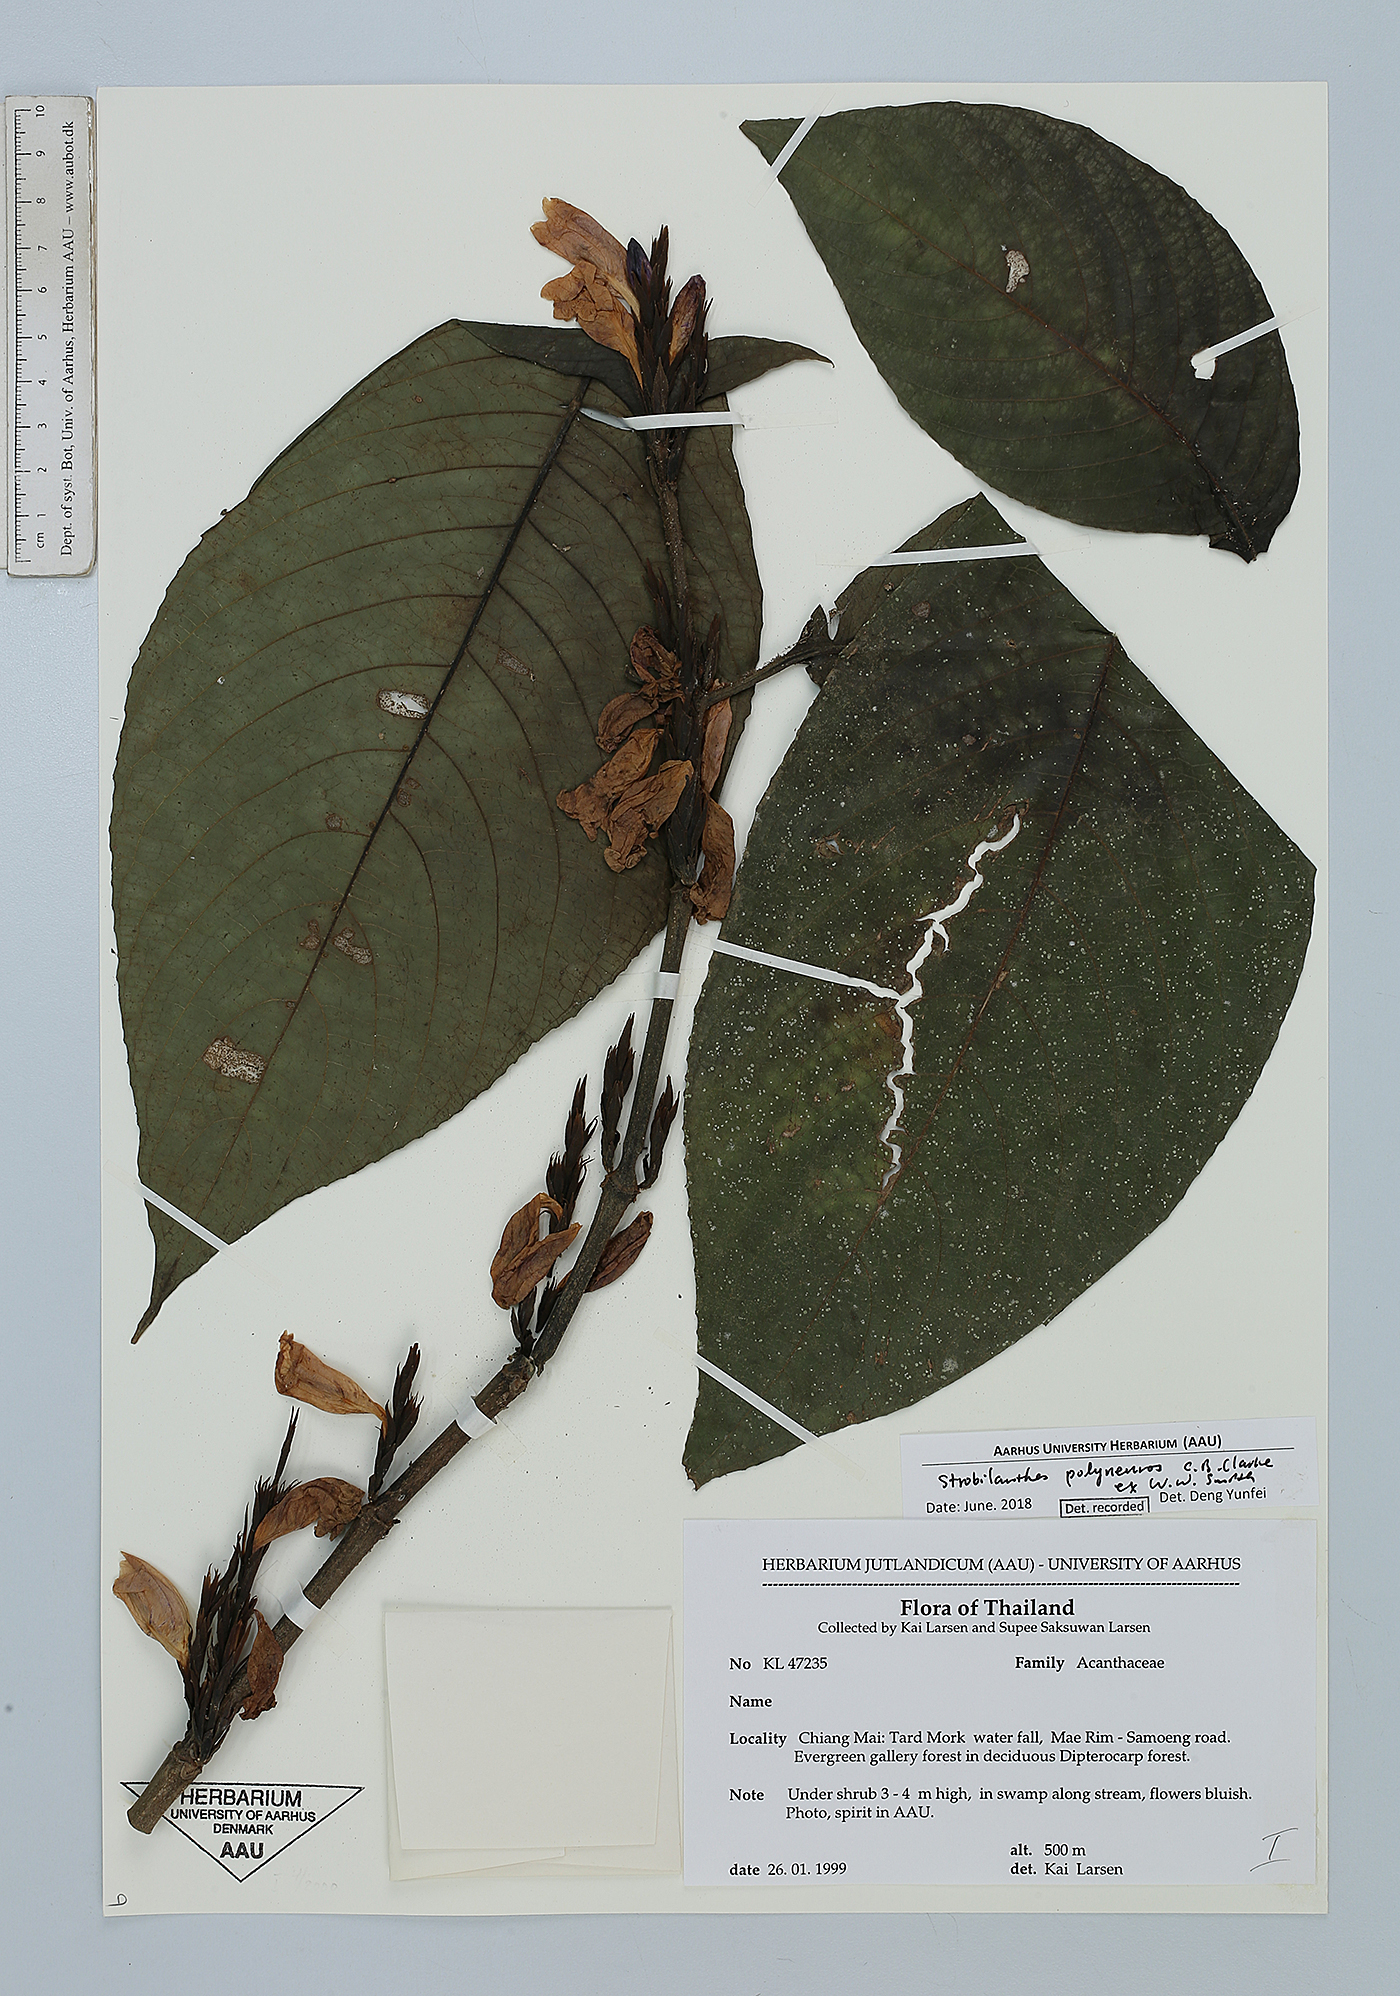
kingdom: Plantae
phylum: Tracheophyta
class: Magnoliopsida
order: Lamiales
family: Acanthaceae
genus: Strobilanthes
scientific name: Strobilanthes polyneuros
